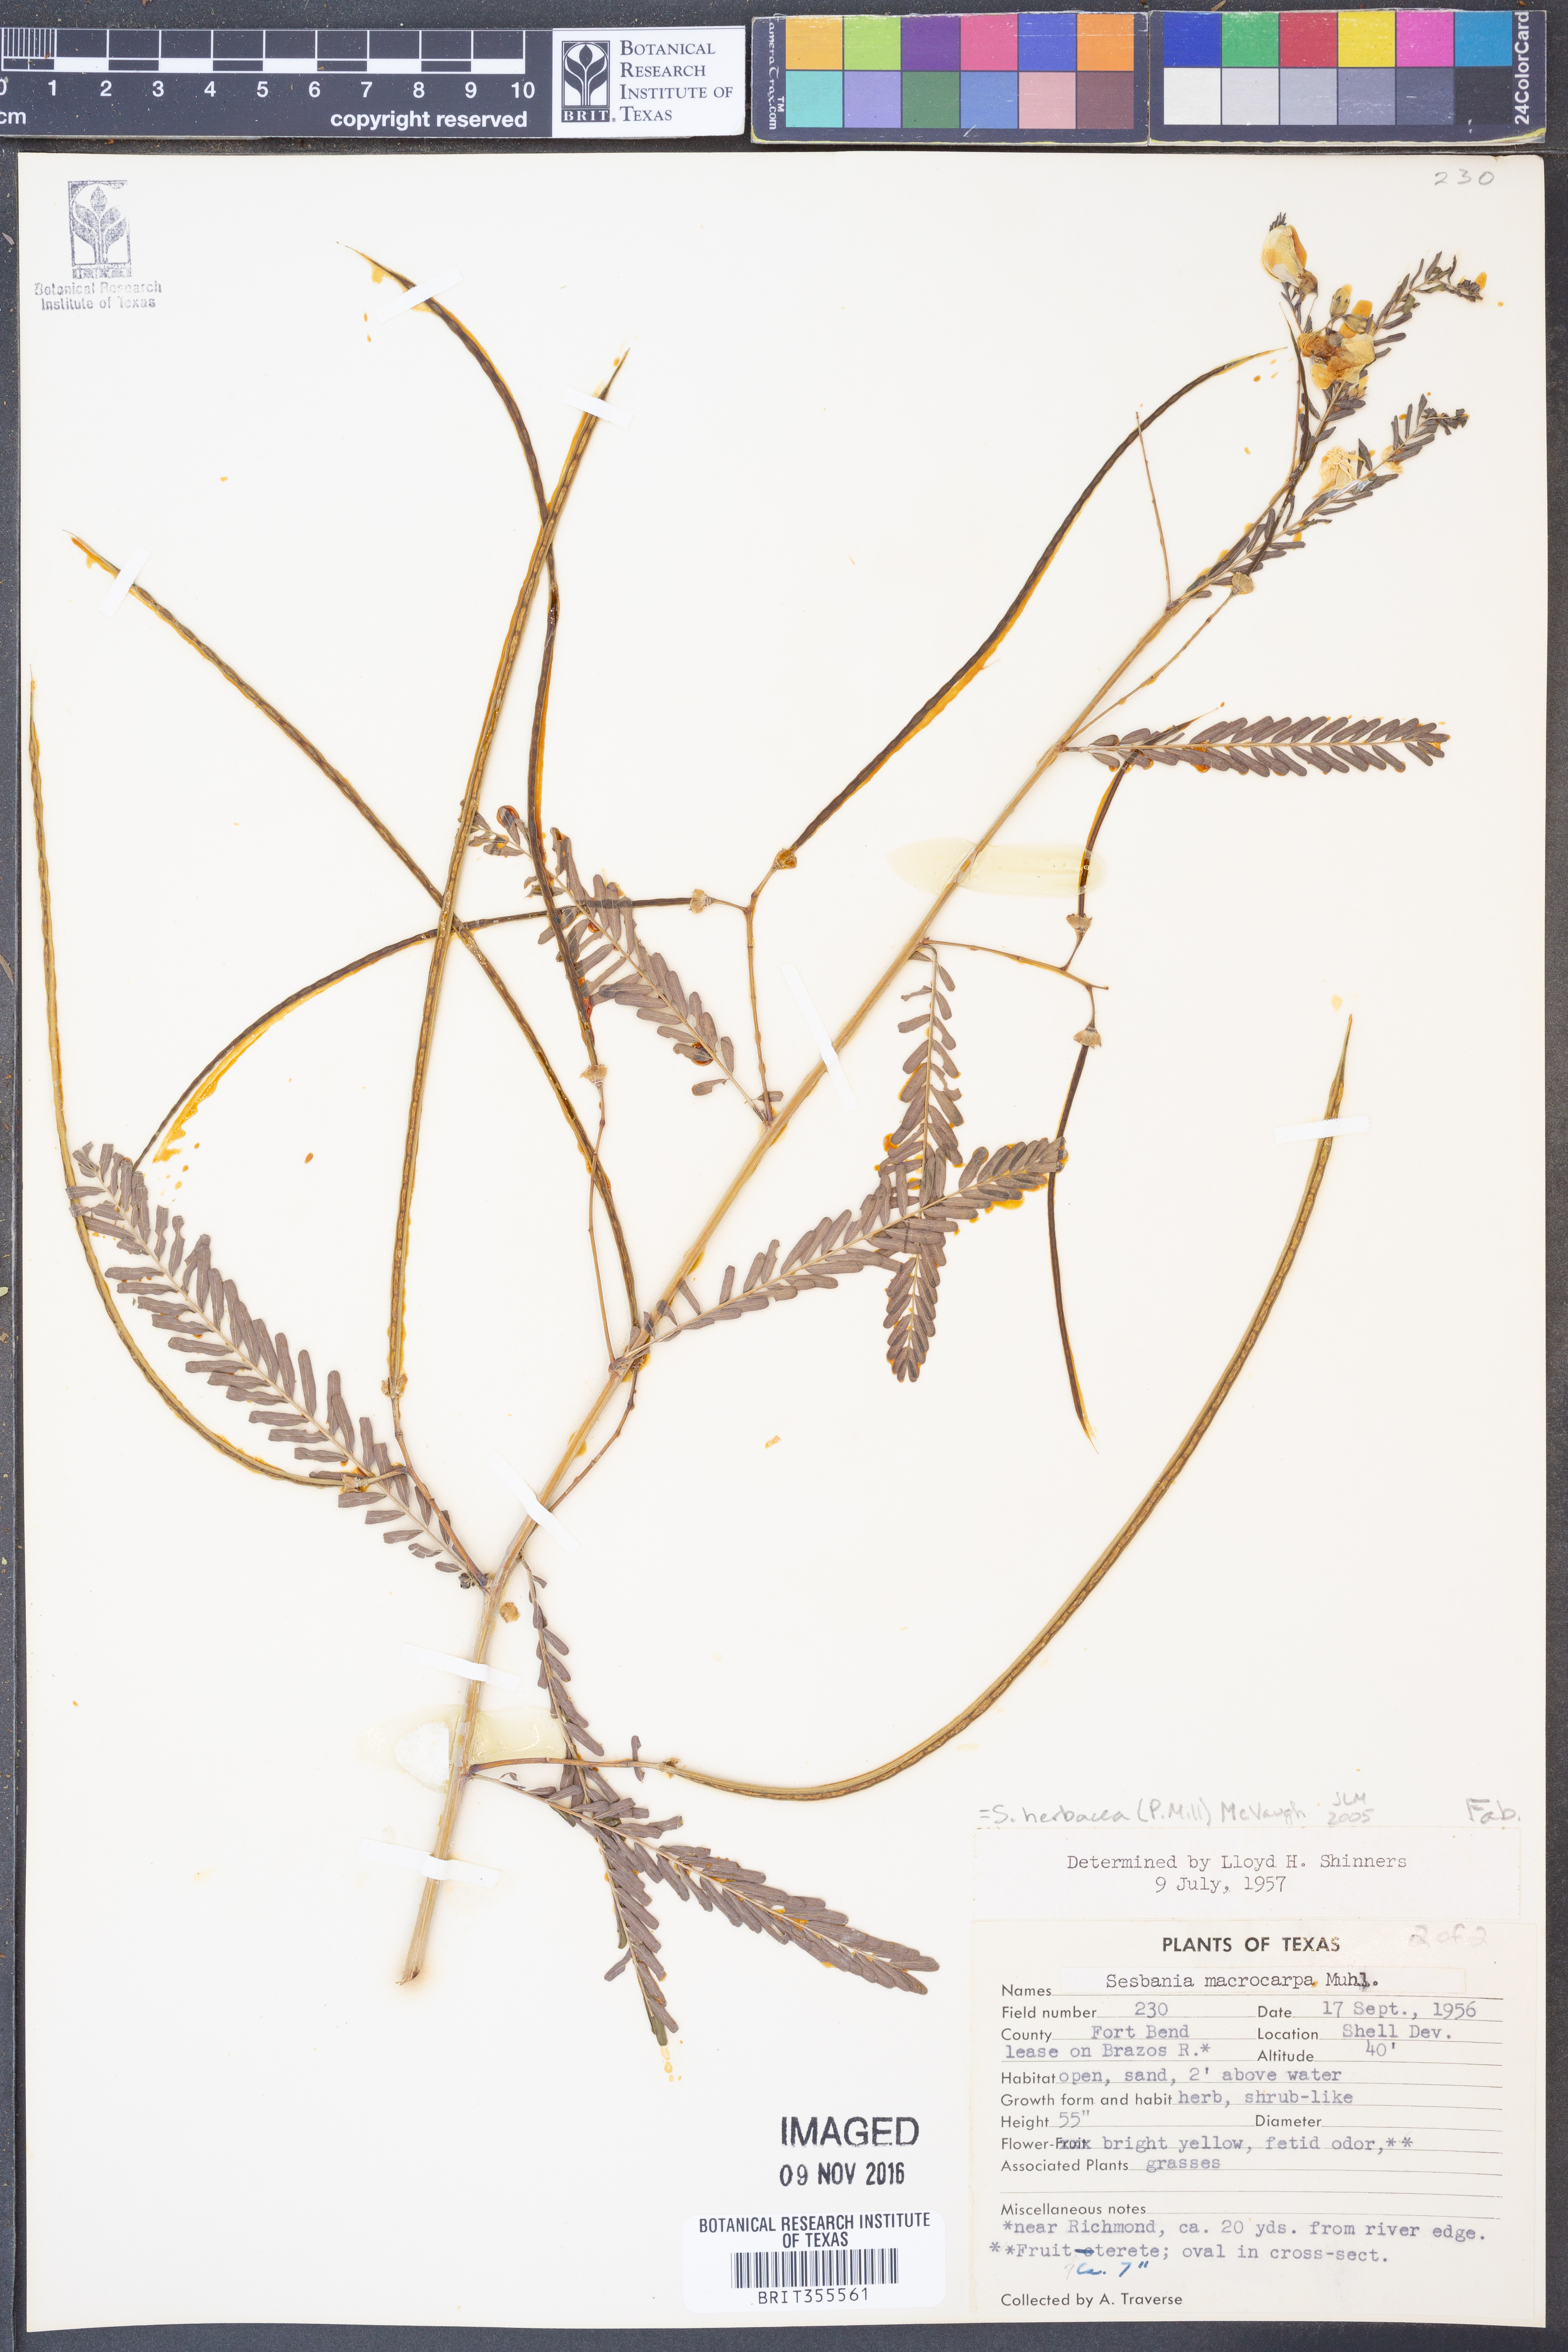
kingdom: Plantae
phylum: Tracheophyta
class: Magnoliopsida
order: Fabales
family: Fabaceae
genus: Sesbania
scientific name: Sesbania herbacea
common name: Bigpod sesbania
